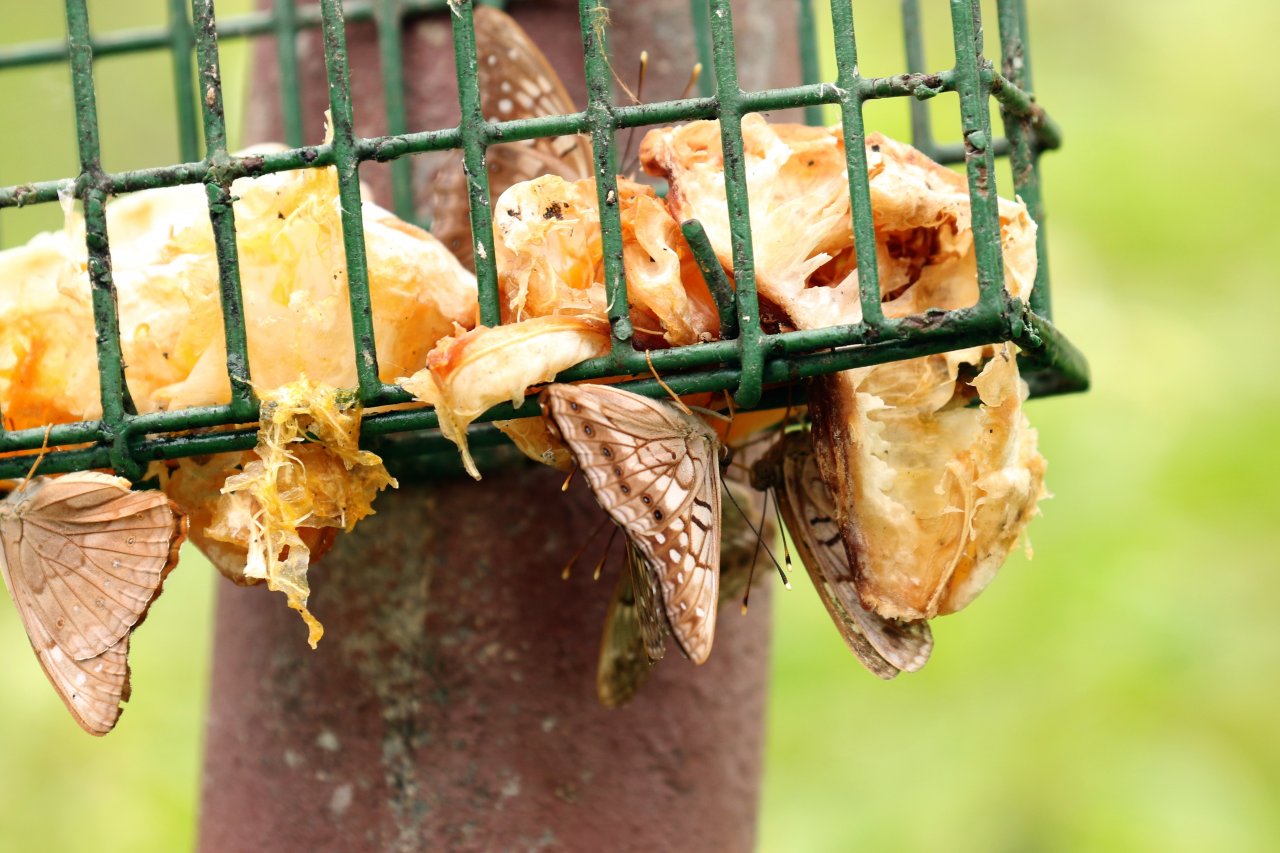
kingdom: Animalia
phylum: Arthropoda
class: Insecta
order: Lepidoptera
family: Nymphalidae
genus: Asterocampa
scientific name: Asterocampa clyton
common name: Tawny Emperor
